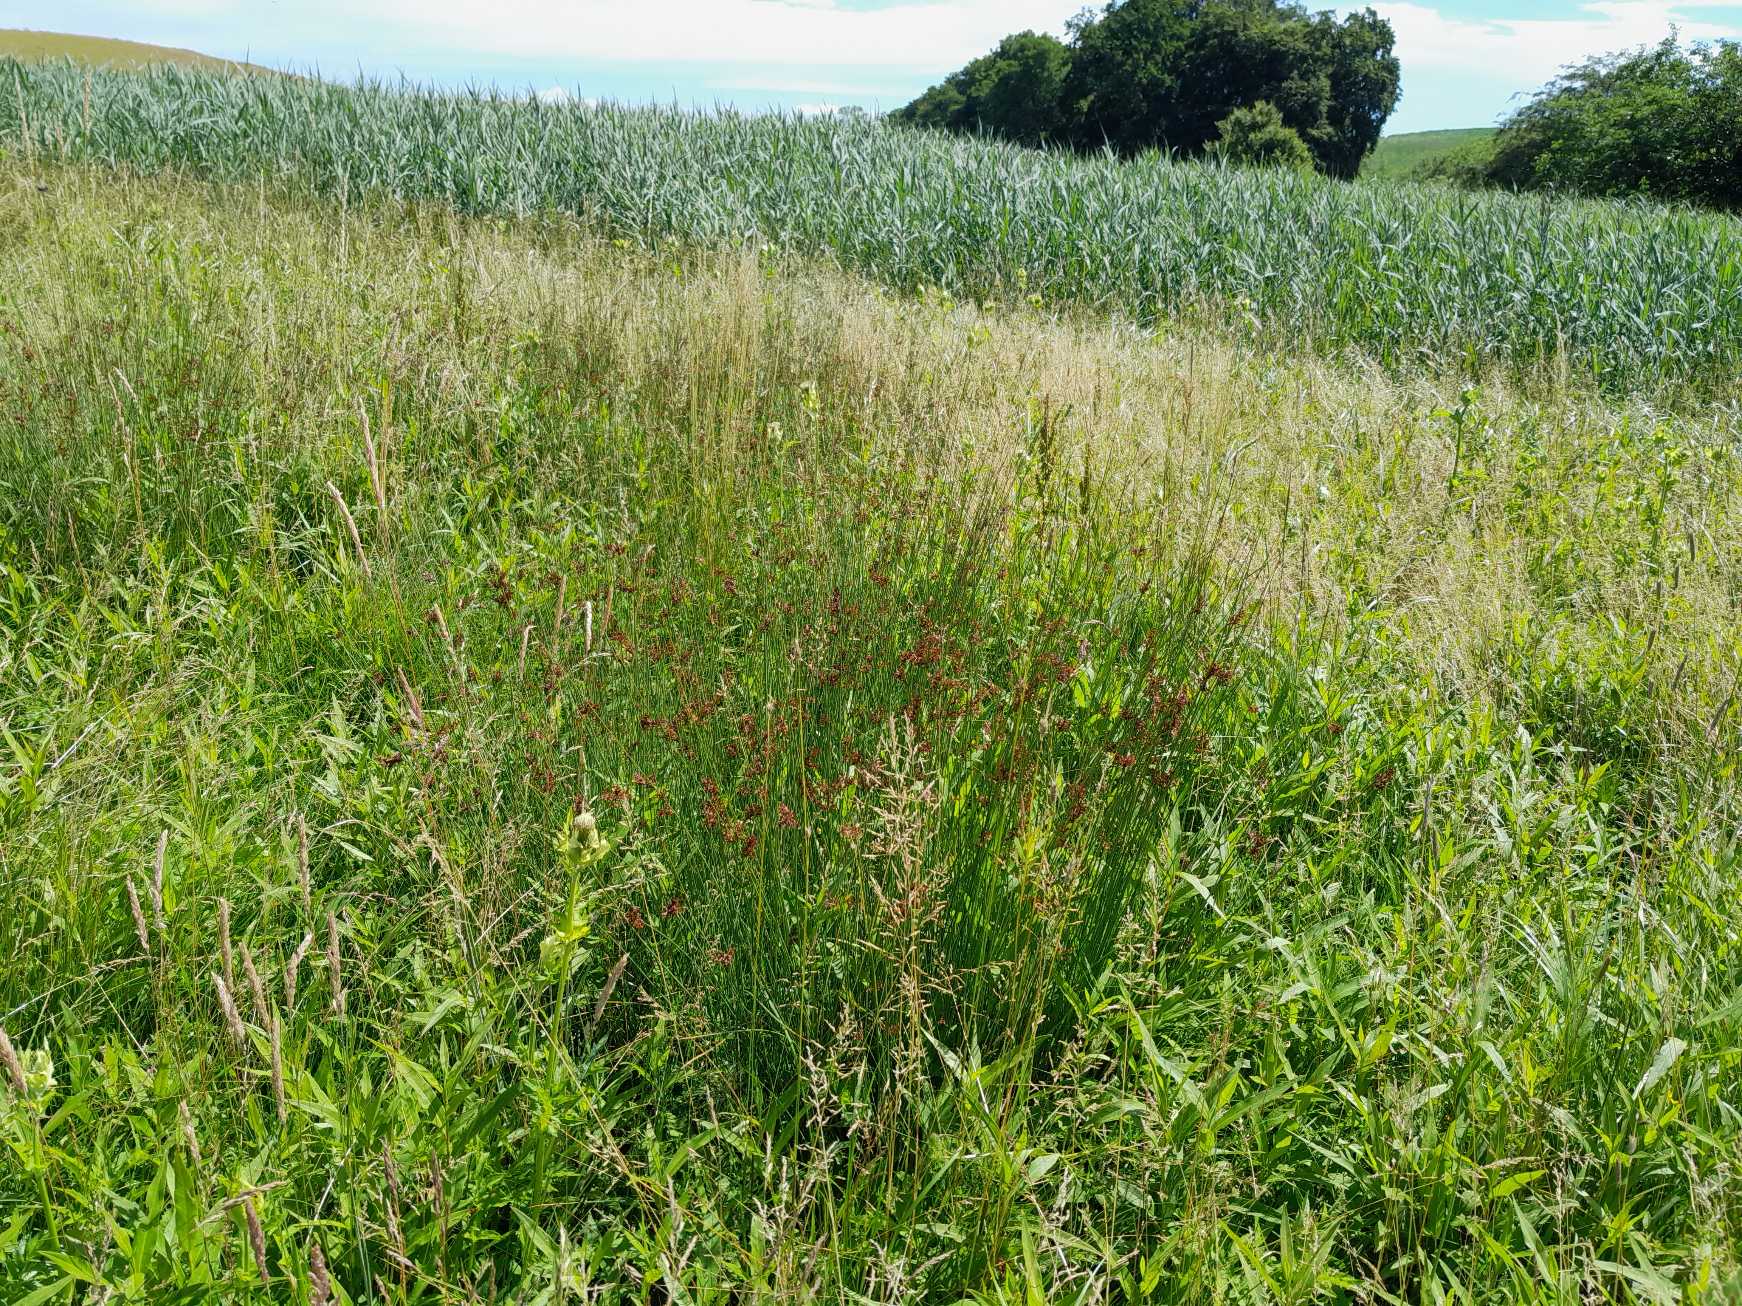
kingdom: Plantae
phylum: Tracheophyta
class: Liliopsida
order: Poales
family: Juncaceae
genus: Juncus
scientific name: Juncus inflexus
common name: Blågrå siv
